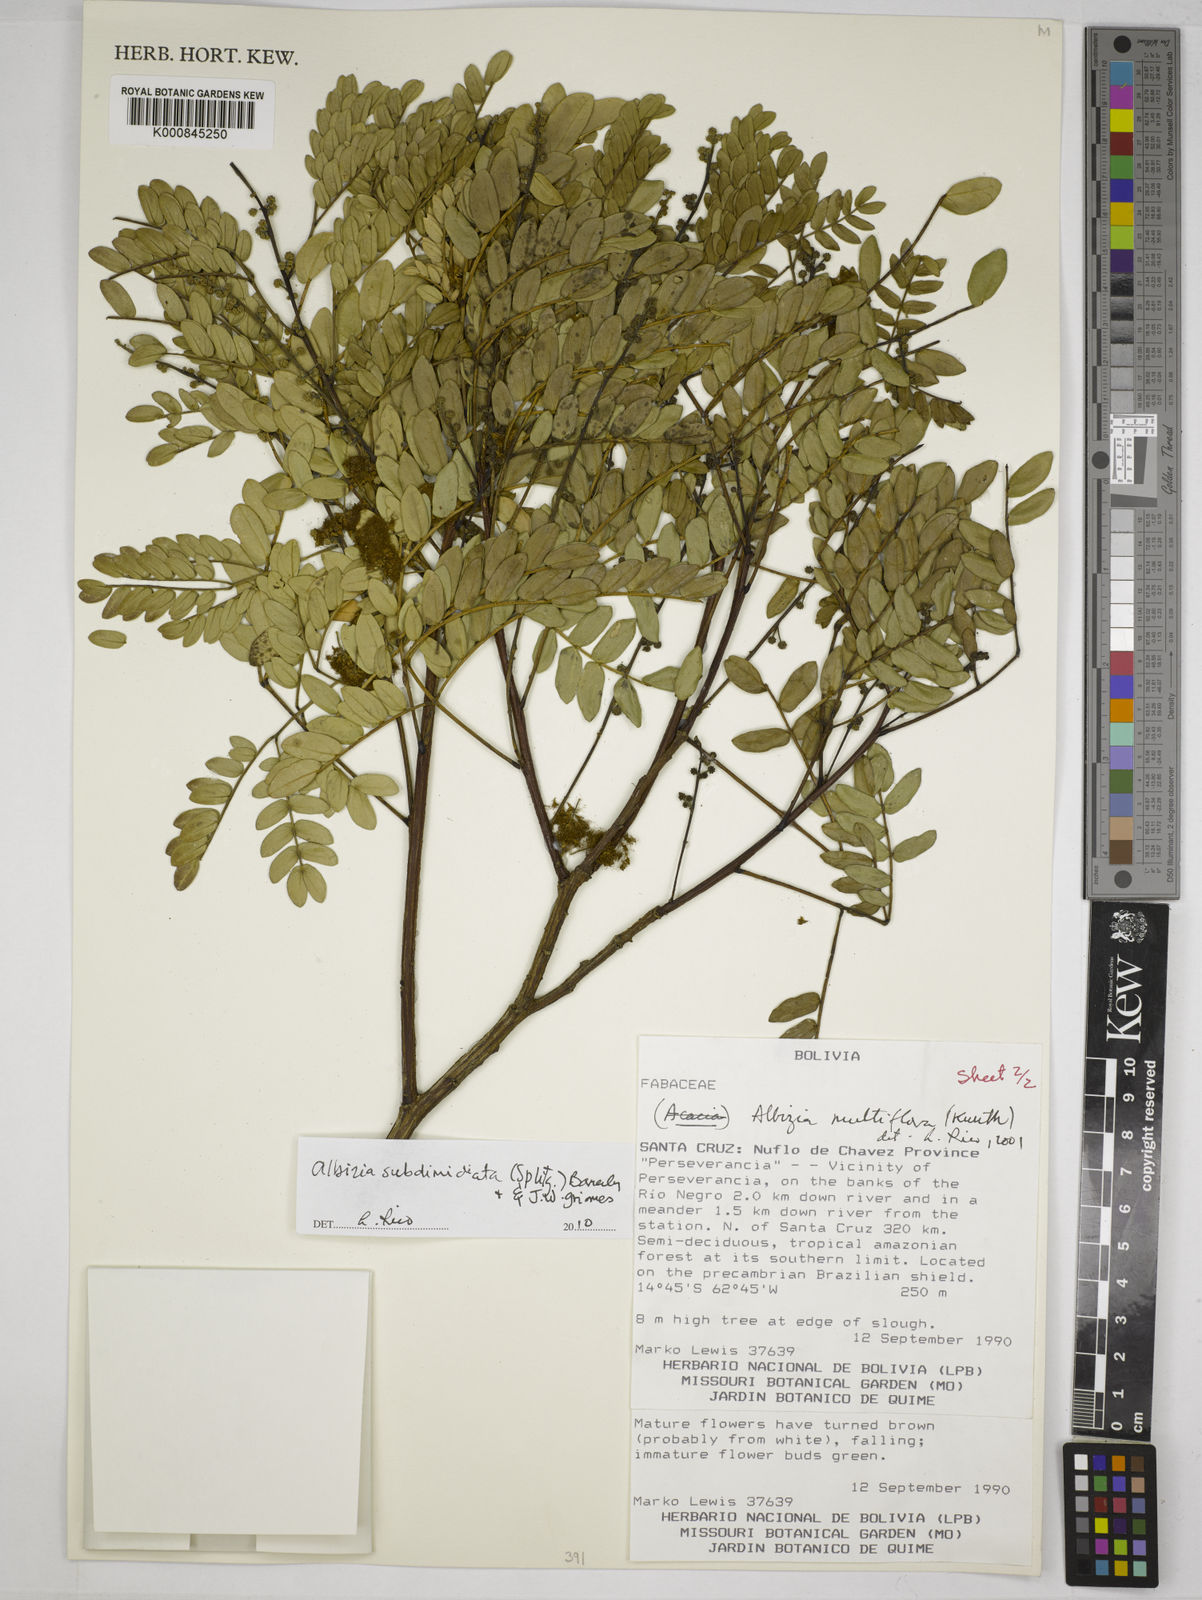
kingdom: Plantae
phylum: Tracheophyta
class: Magnoliopsida
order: Fabales
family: Fabaceae
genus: Albizia
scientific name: Albizia subdimidiata
